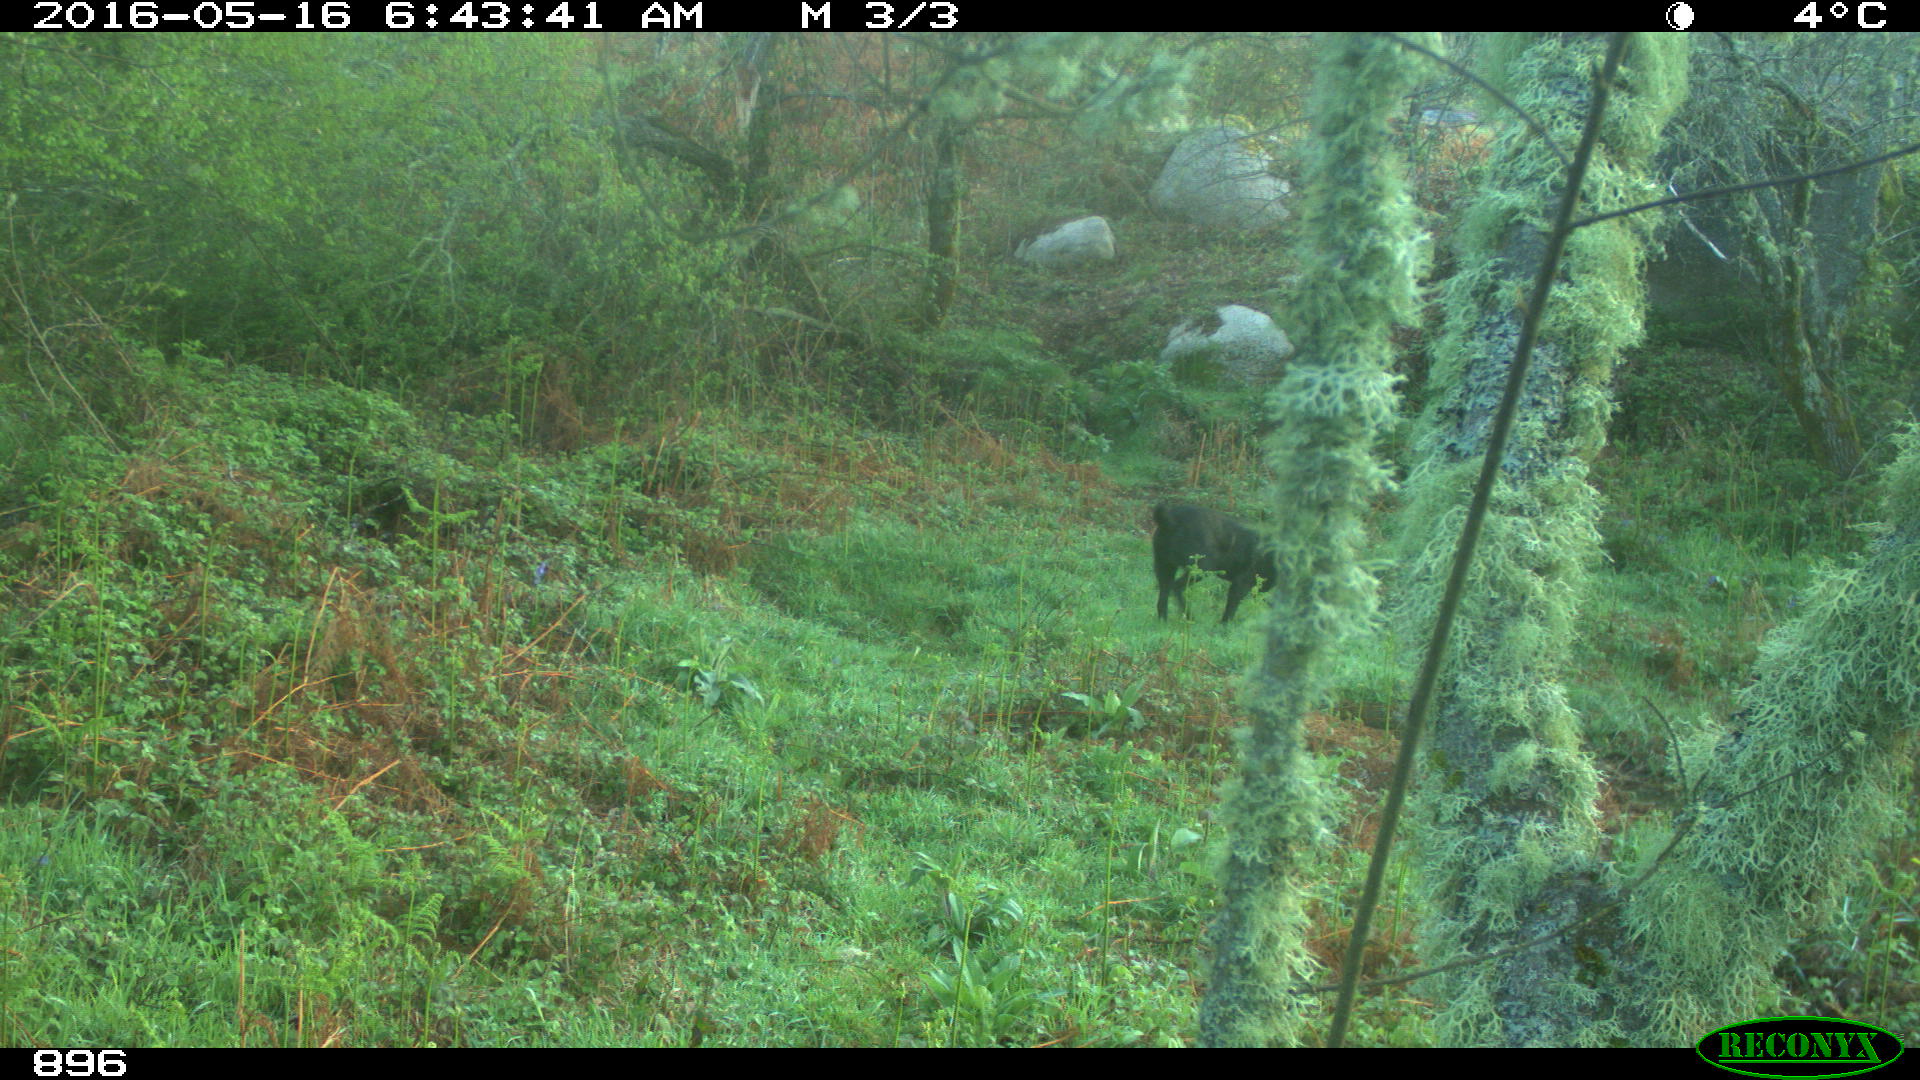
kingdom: Animalia
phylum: Chordata
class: Mammalia
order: Carnivora
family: Canidae
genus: Canis
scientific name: Canis lupus
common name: Gray wolf
